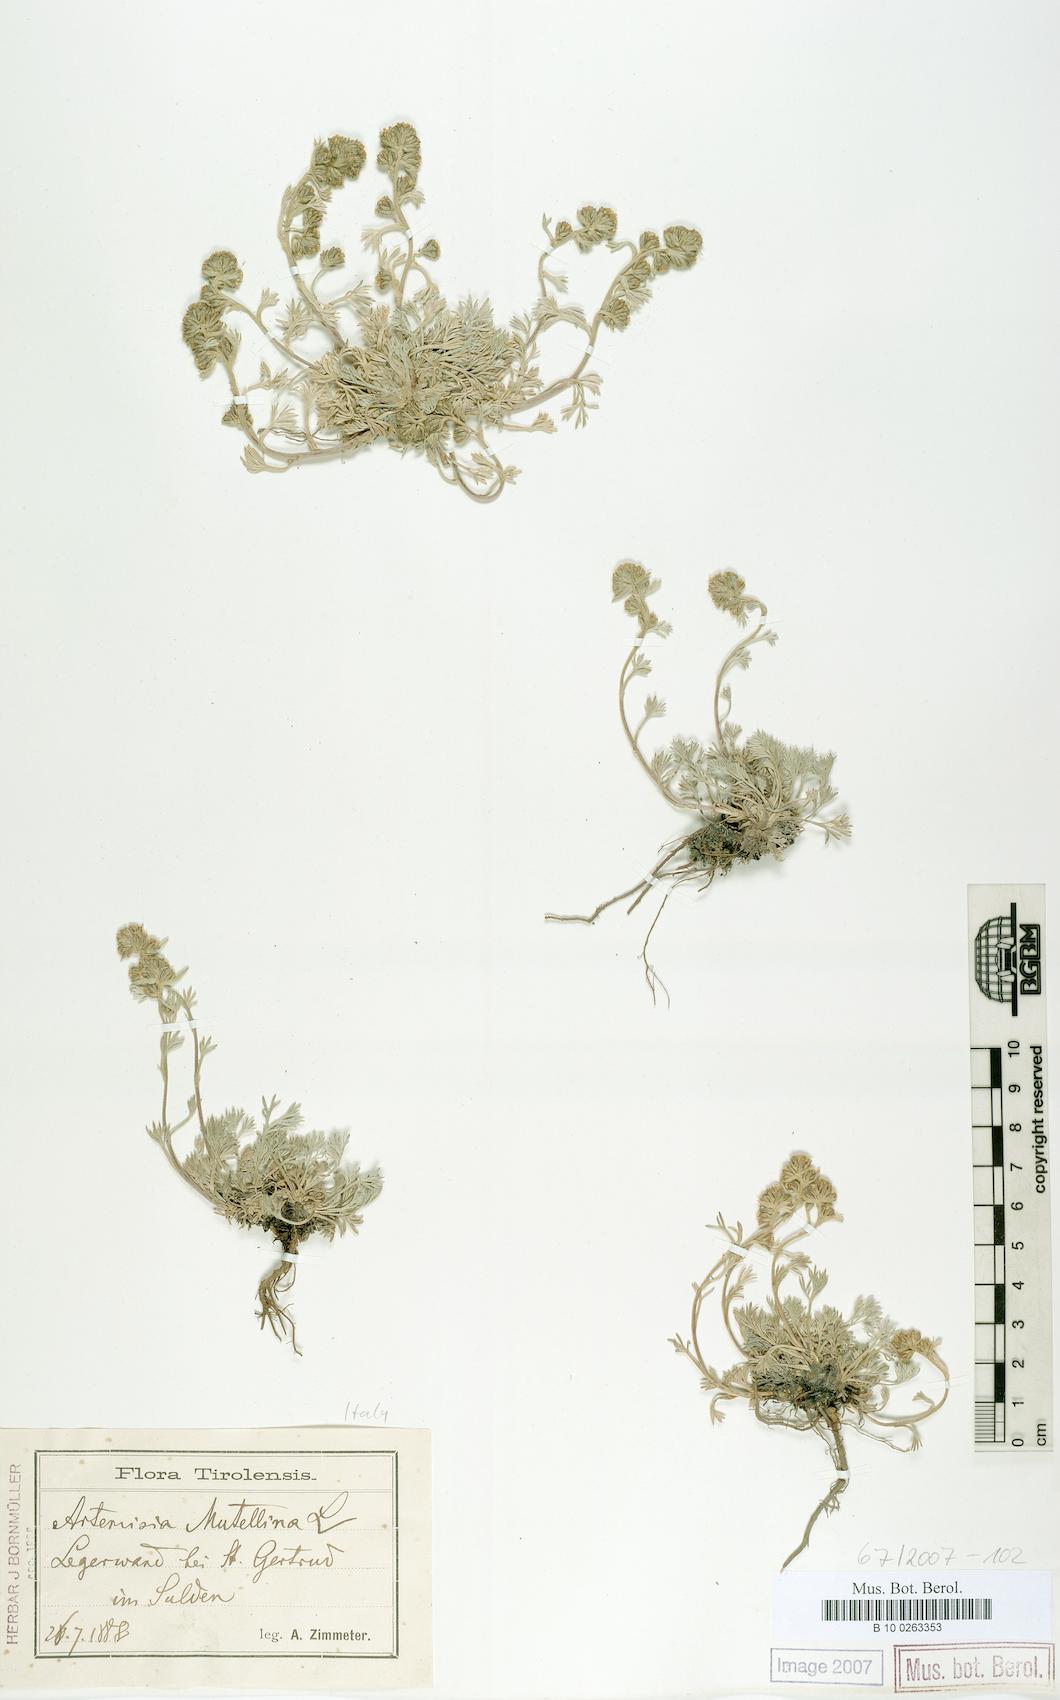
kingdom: Plantae
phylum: Tracheophyta
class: Magnoliopsida
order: Asterales
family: Asteraceae
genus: Artemisia
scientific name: Artemisia mutellina
